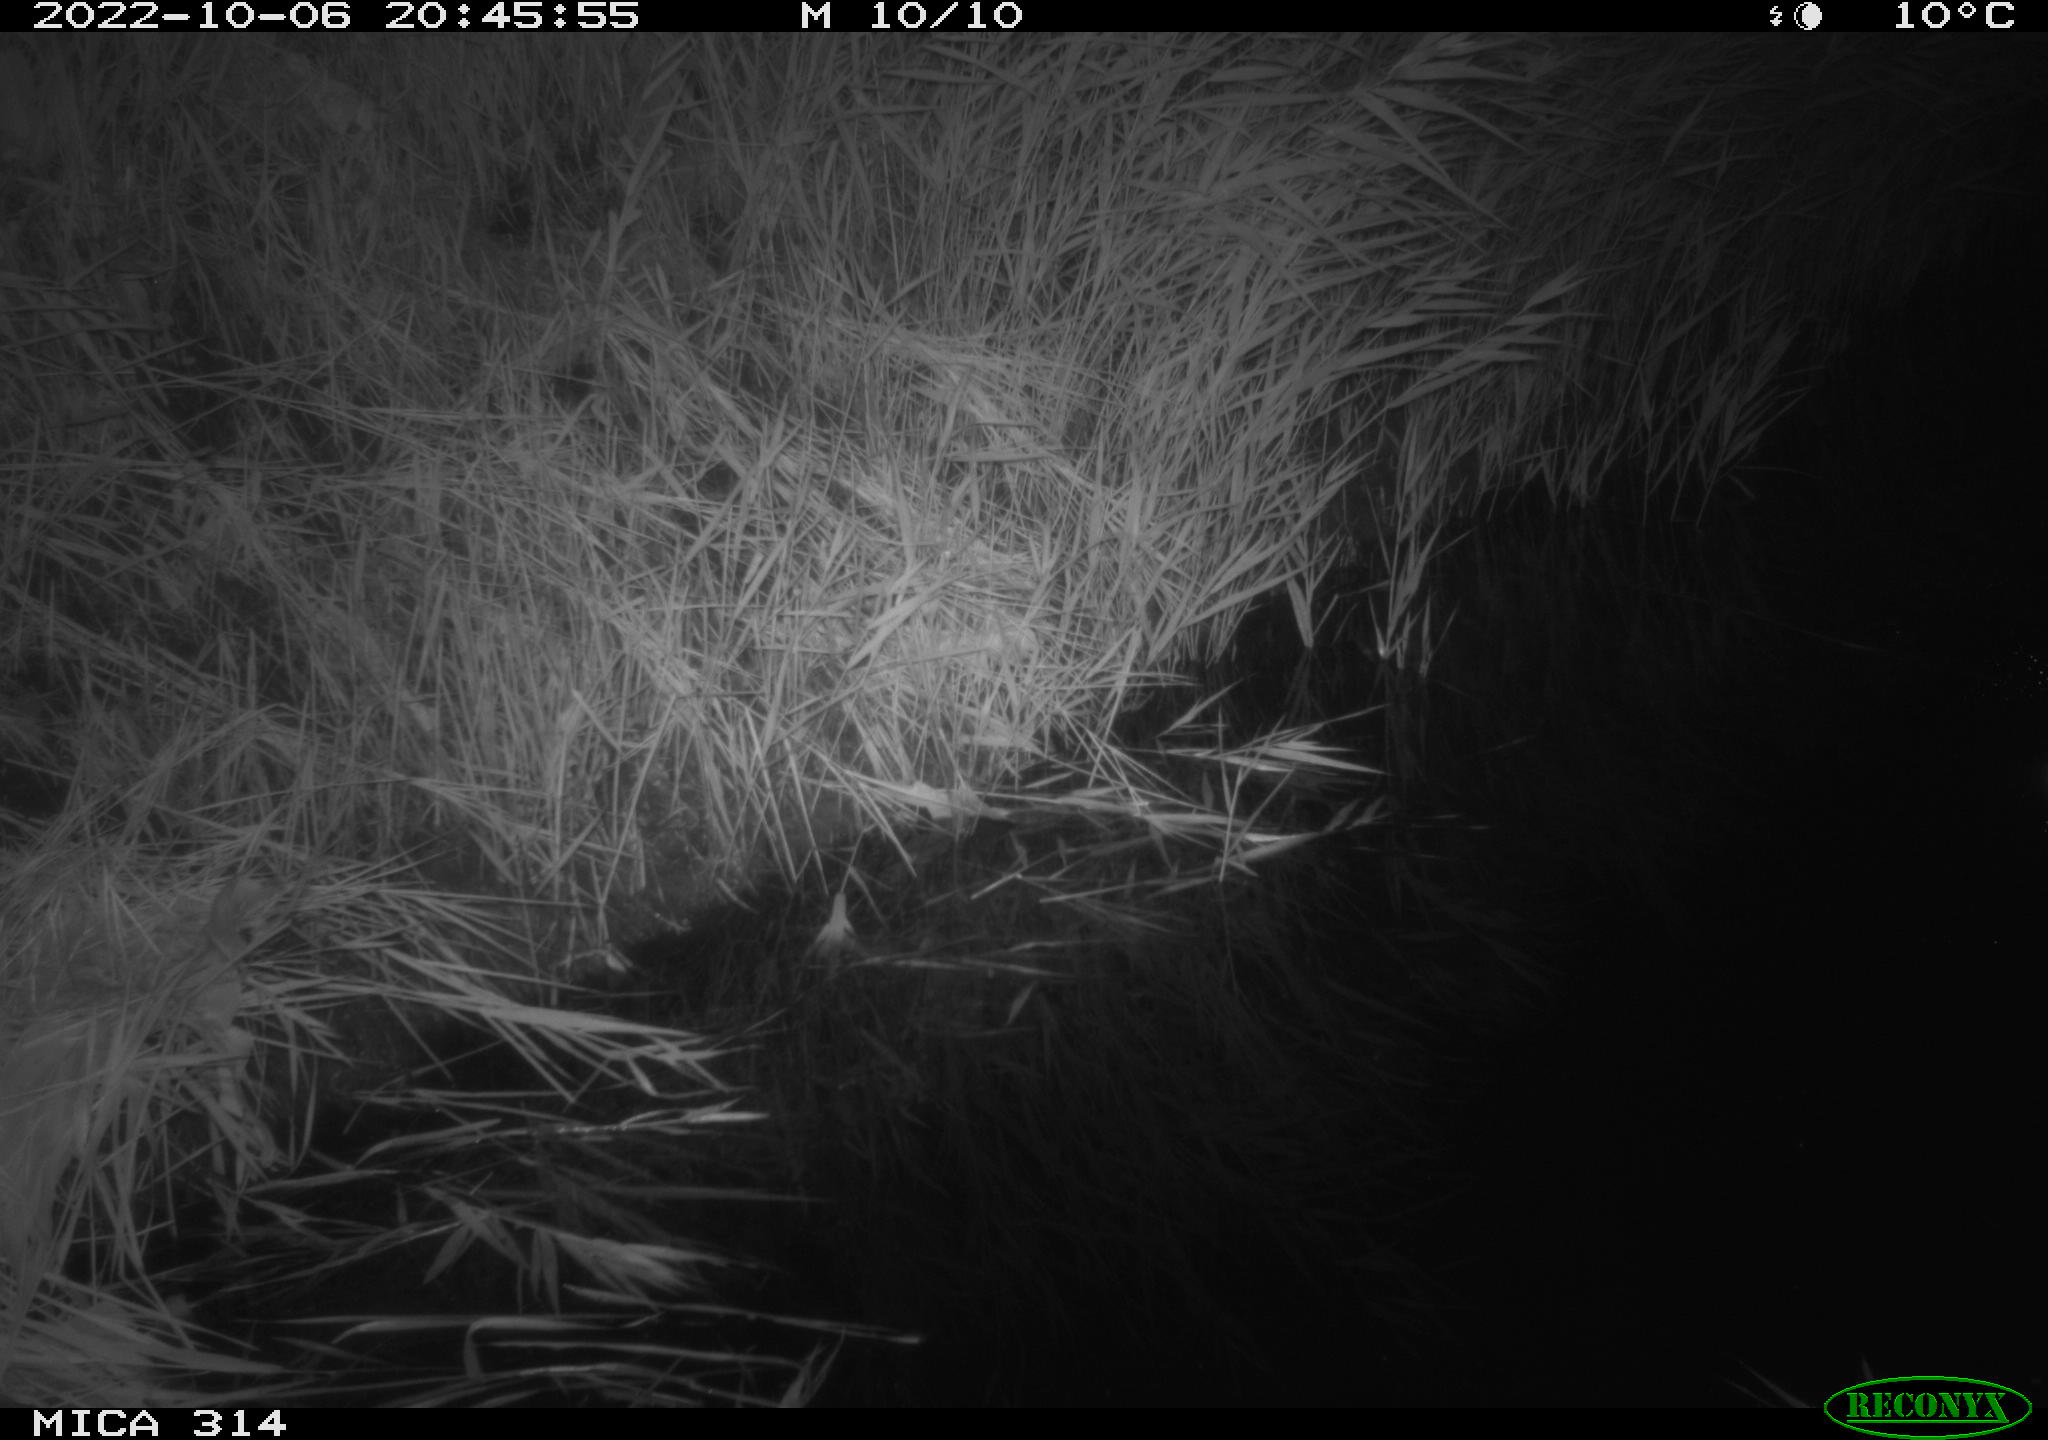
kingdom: Animalia
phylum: Chordata
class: Mammalia
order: Rodentia
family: Cricetidae
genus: Ondatra
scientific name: Ondatra zibethicus
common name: Muskrat
